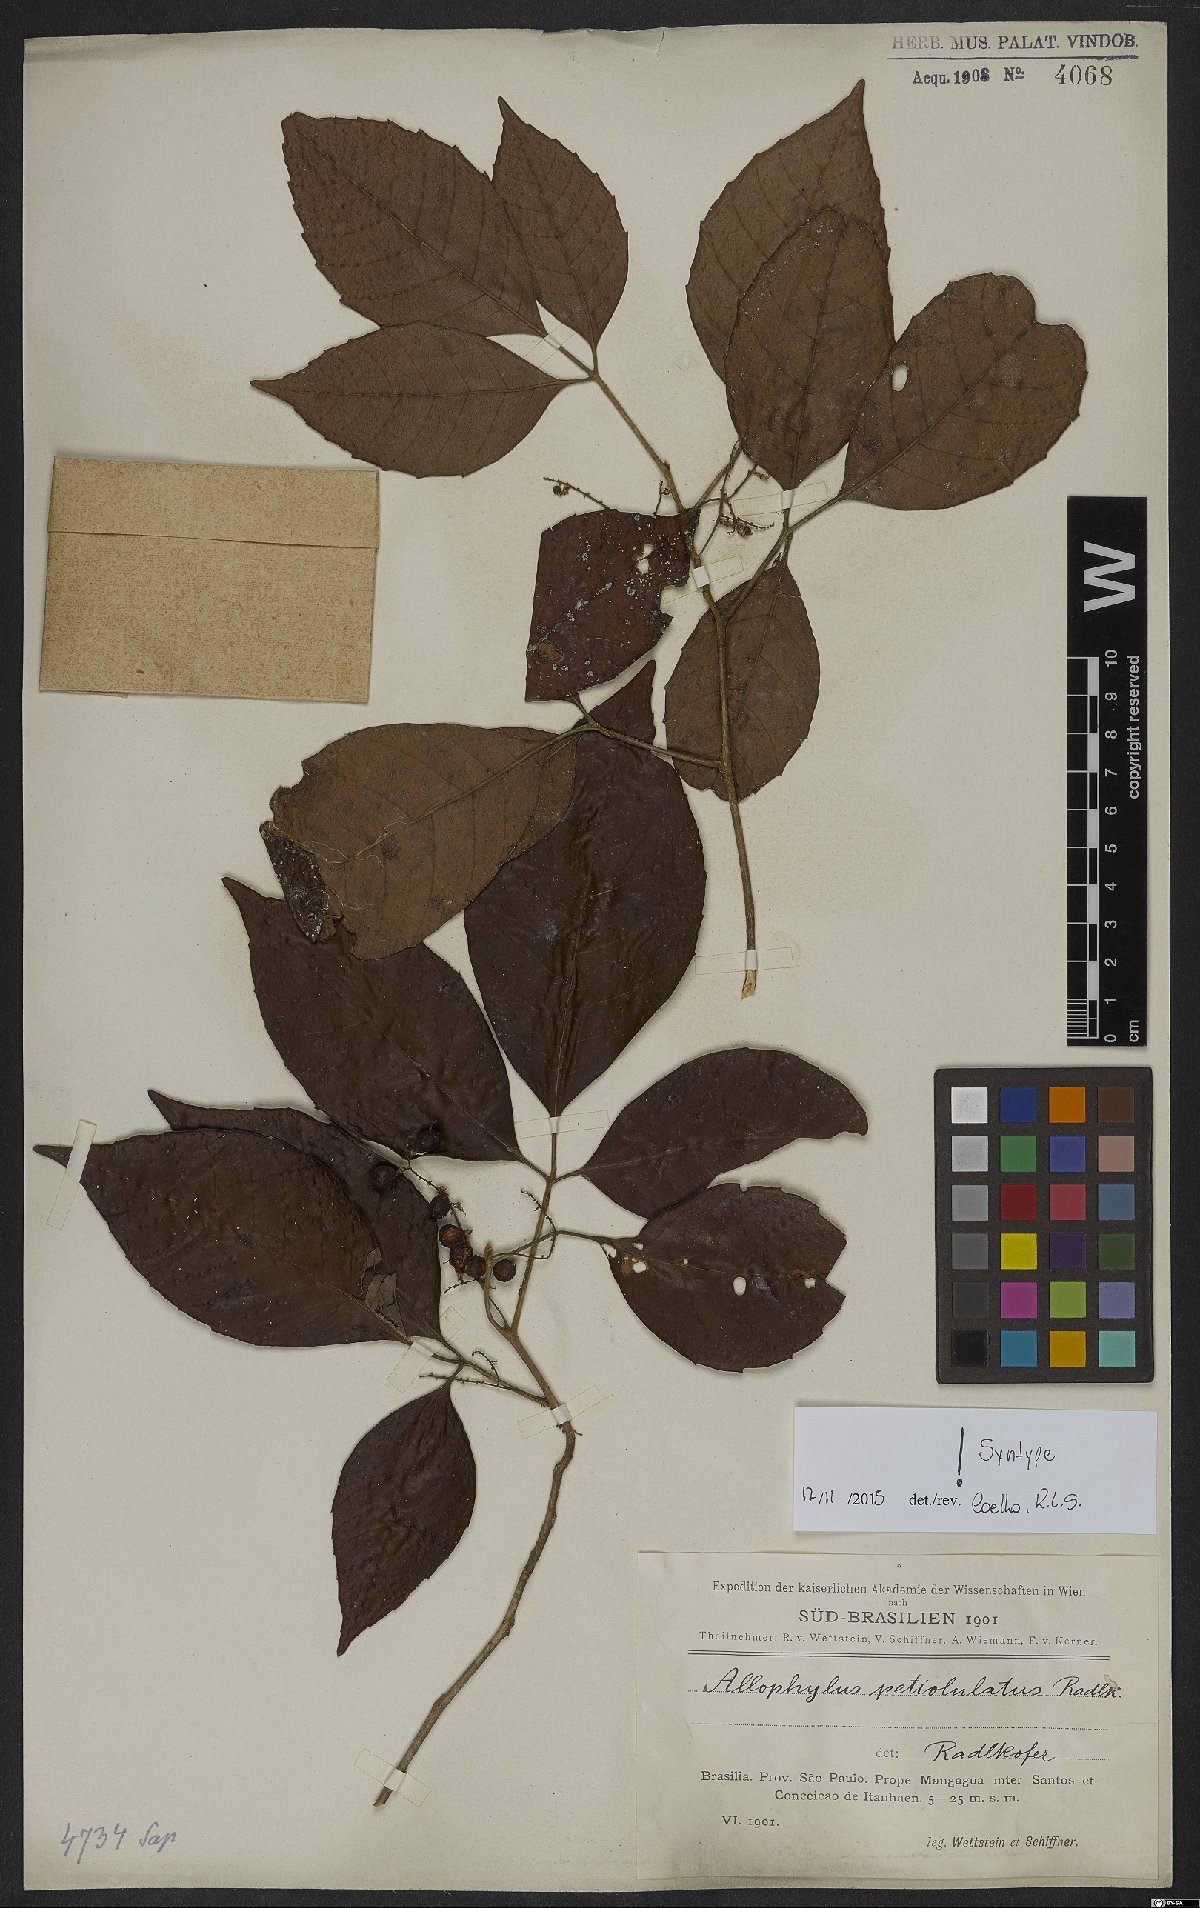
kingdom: Plantae
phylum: Tracheophyta
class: Magnoliopsida
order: Sapindales
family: Sapindaceae
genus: Allophylus
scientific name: Allophylus petiolulatus
